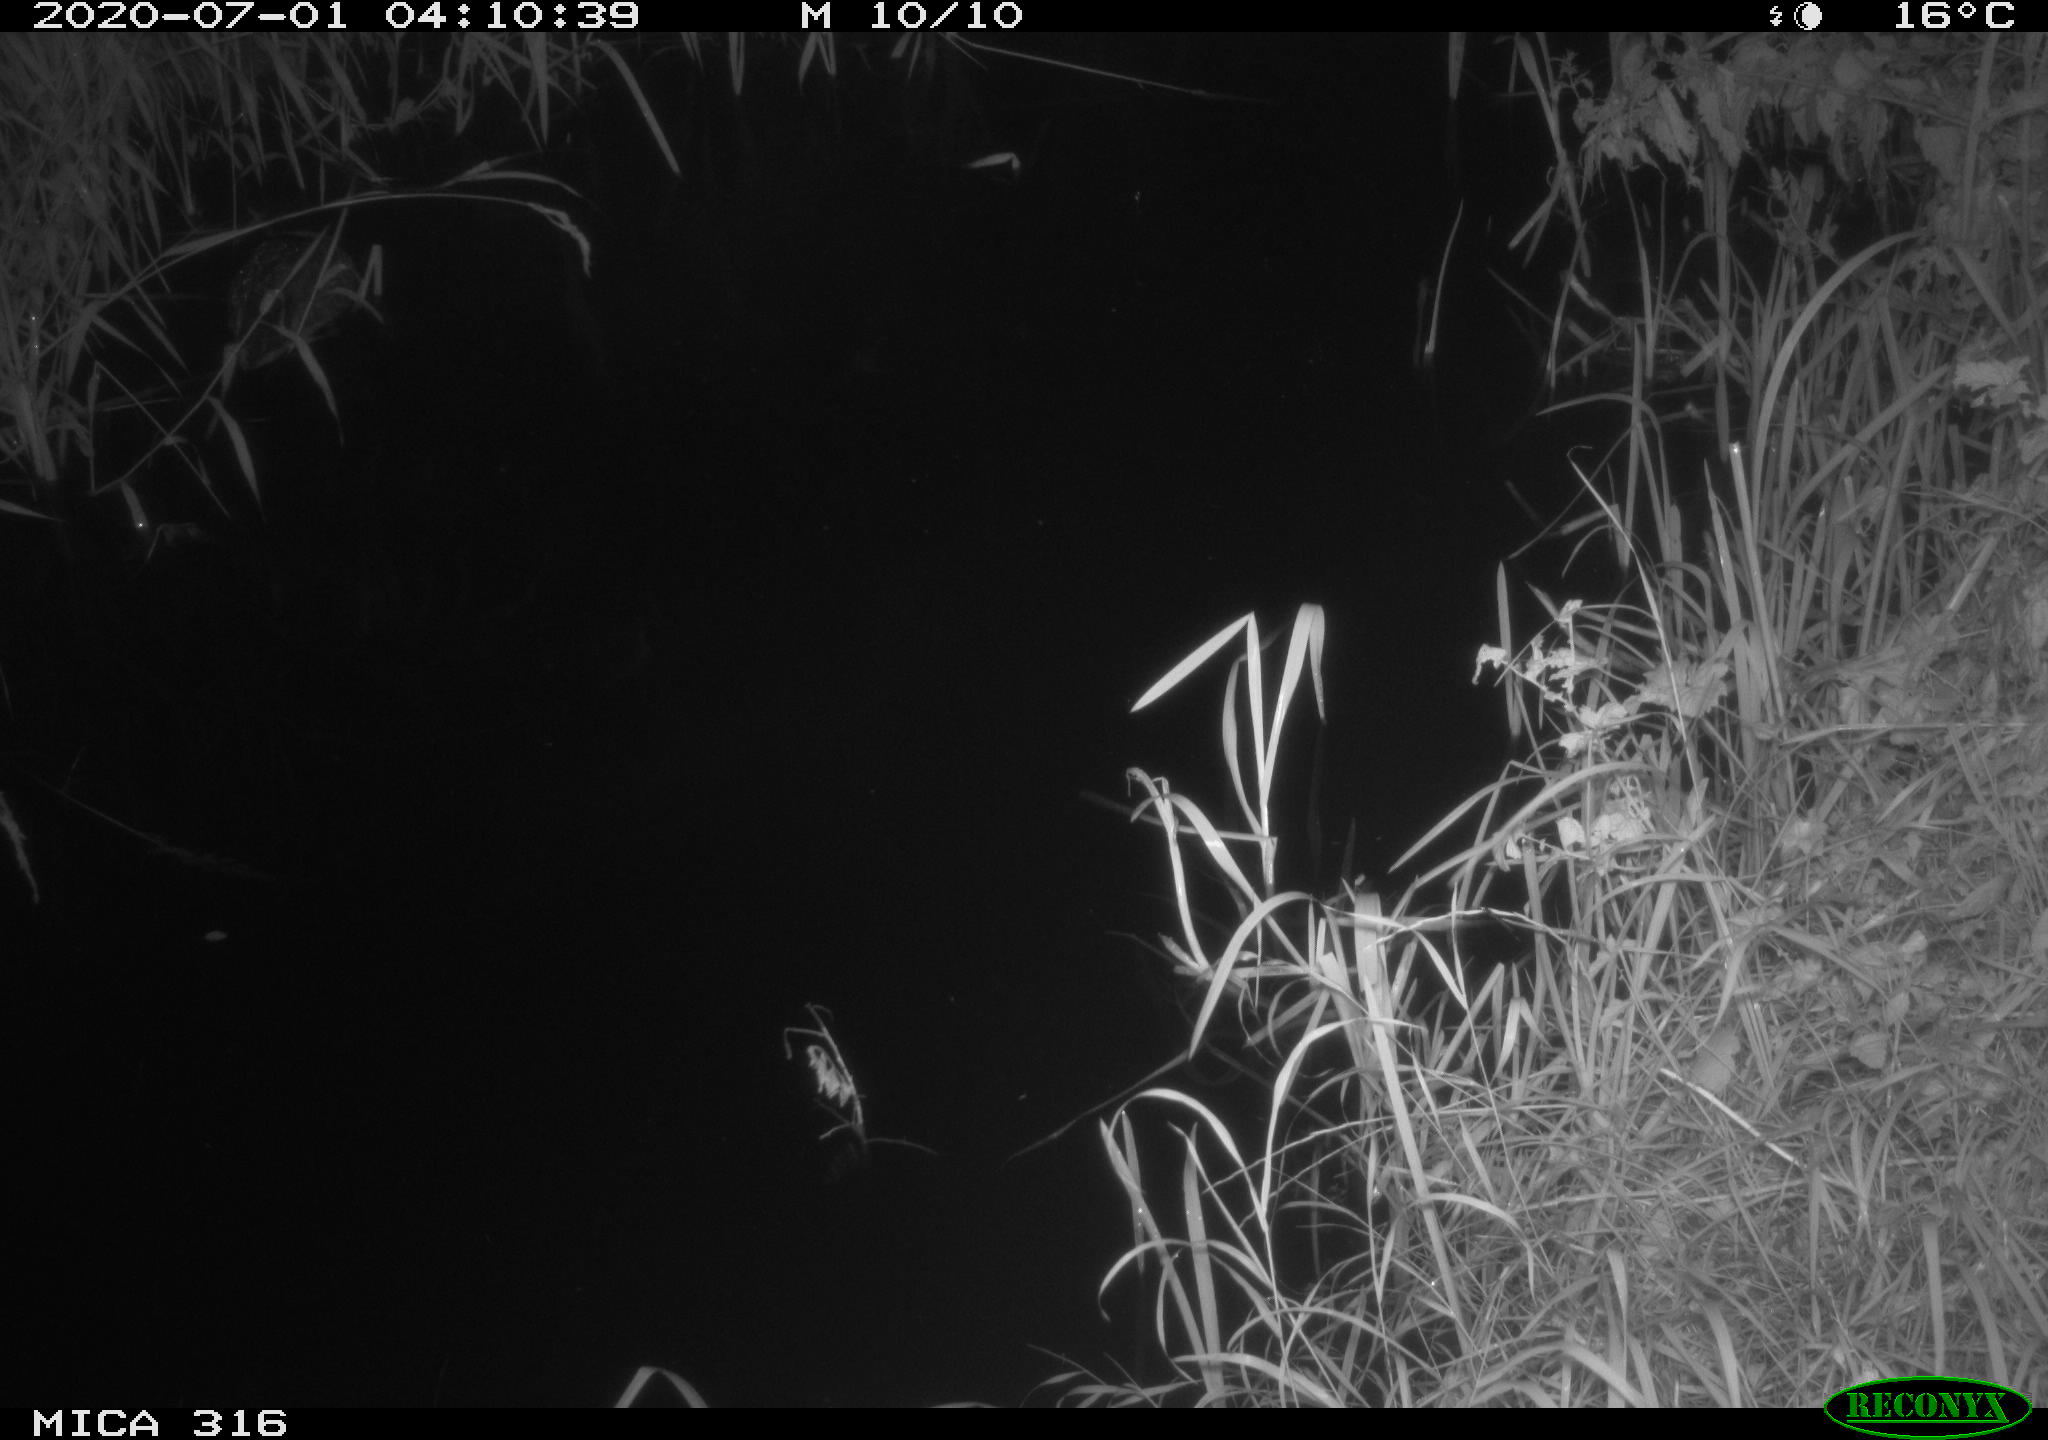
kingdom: Animalia
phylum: Chordata
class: Aves
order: Anseriformes
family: Anatidae
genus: Anas
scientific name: Anas platyrhynchos
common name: Mallard
